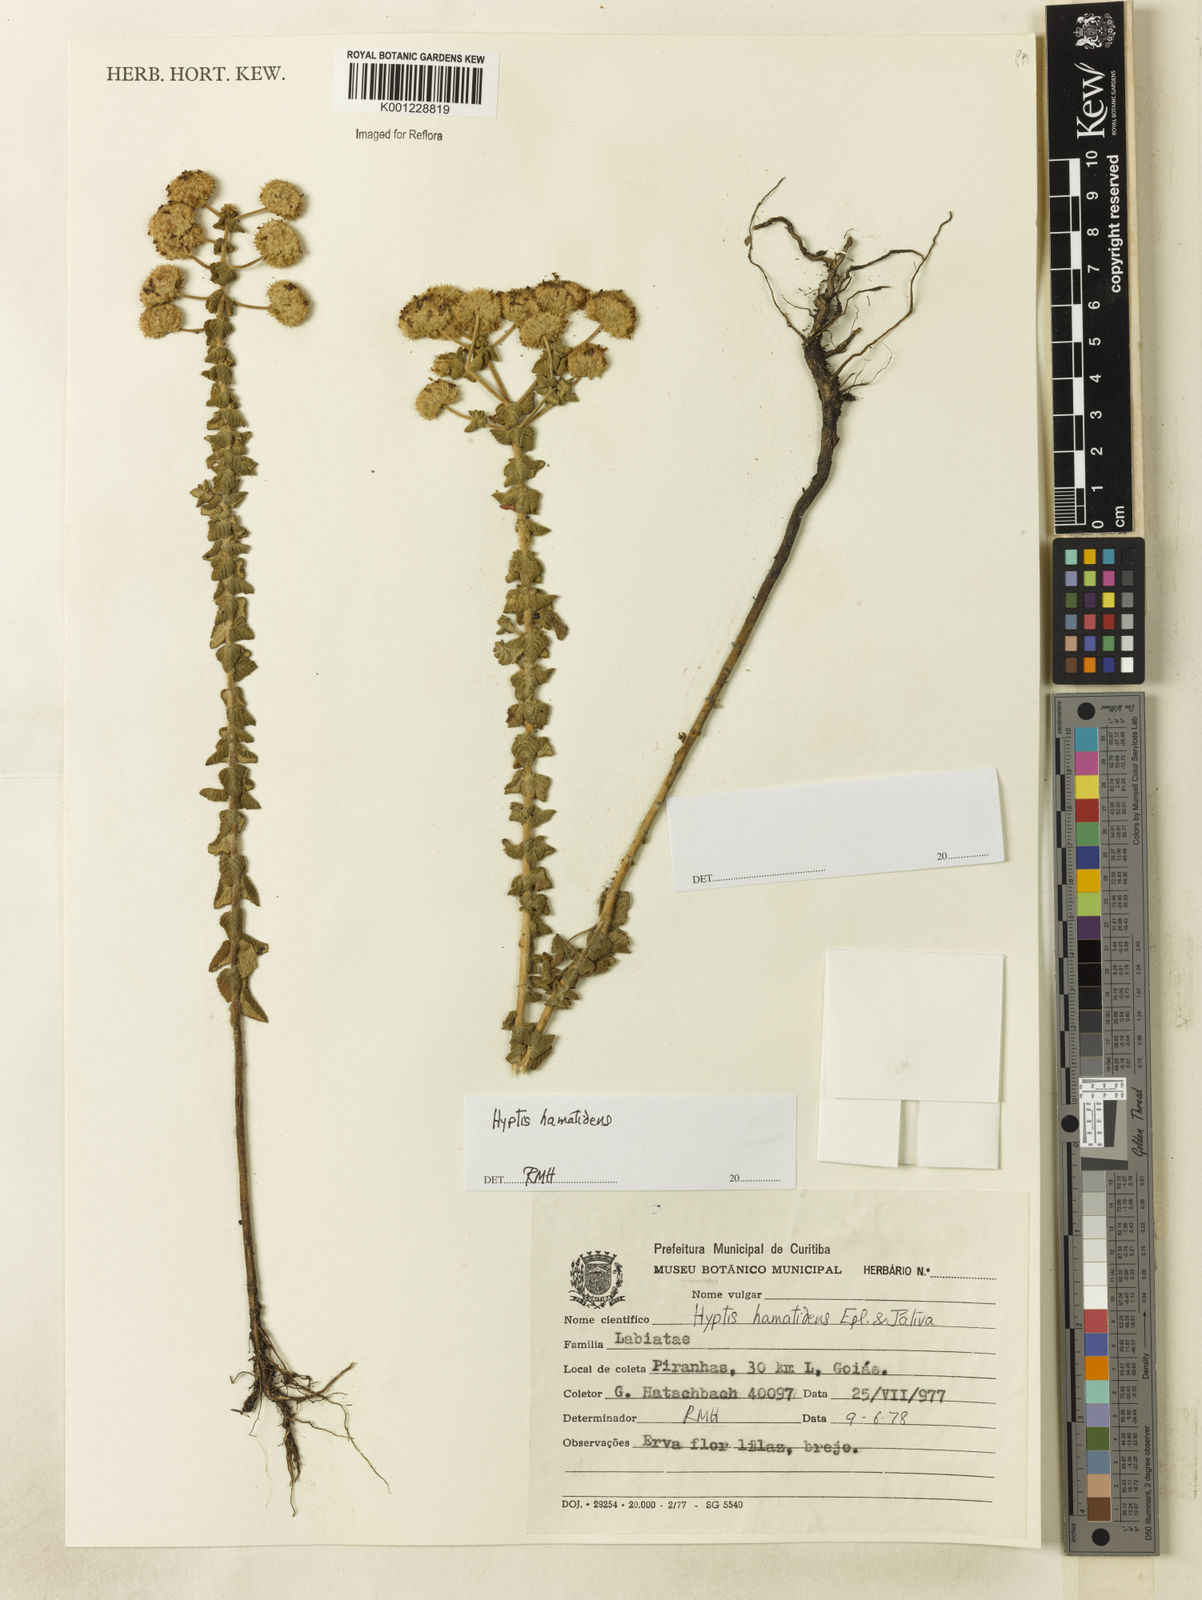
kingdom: Plantae
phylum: Tracheophyta
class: Magnoliopsida
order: Lamiales
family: Lamiaceae
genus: Hyptis
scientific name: Hyptis
